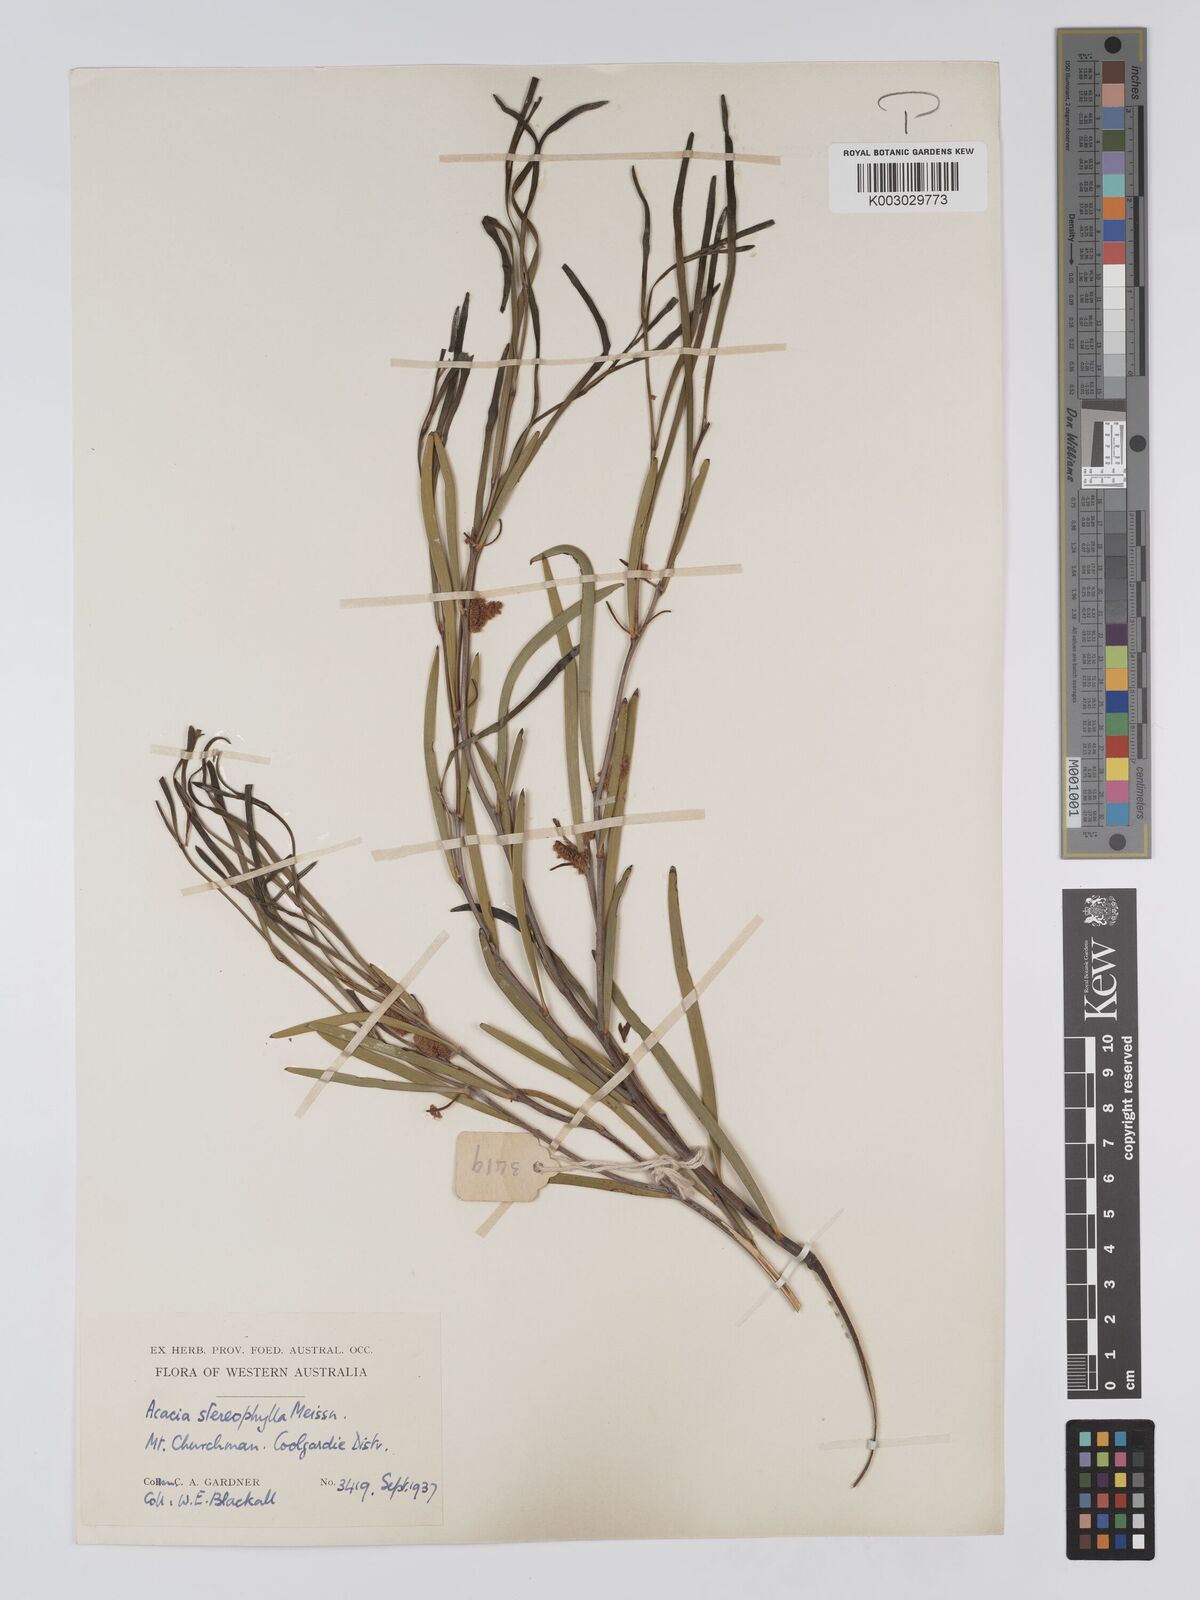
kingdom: Plantae
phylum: Tracheophyta
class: Magnoliopsida
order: Fabales
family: Fabaceae
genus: Acacia
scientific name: Acacia stereophylla
